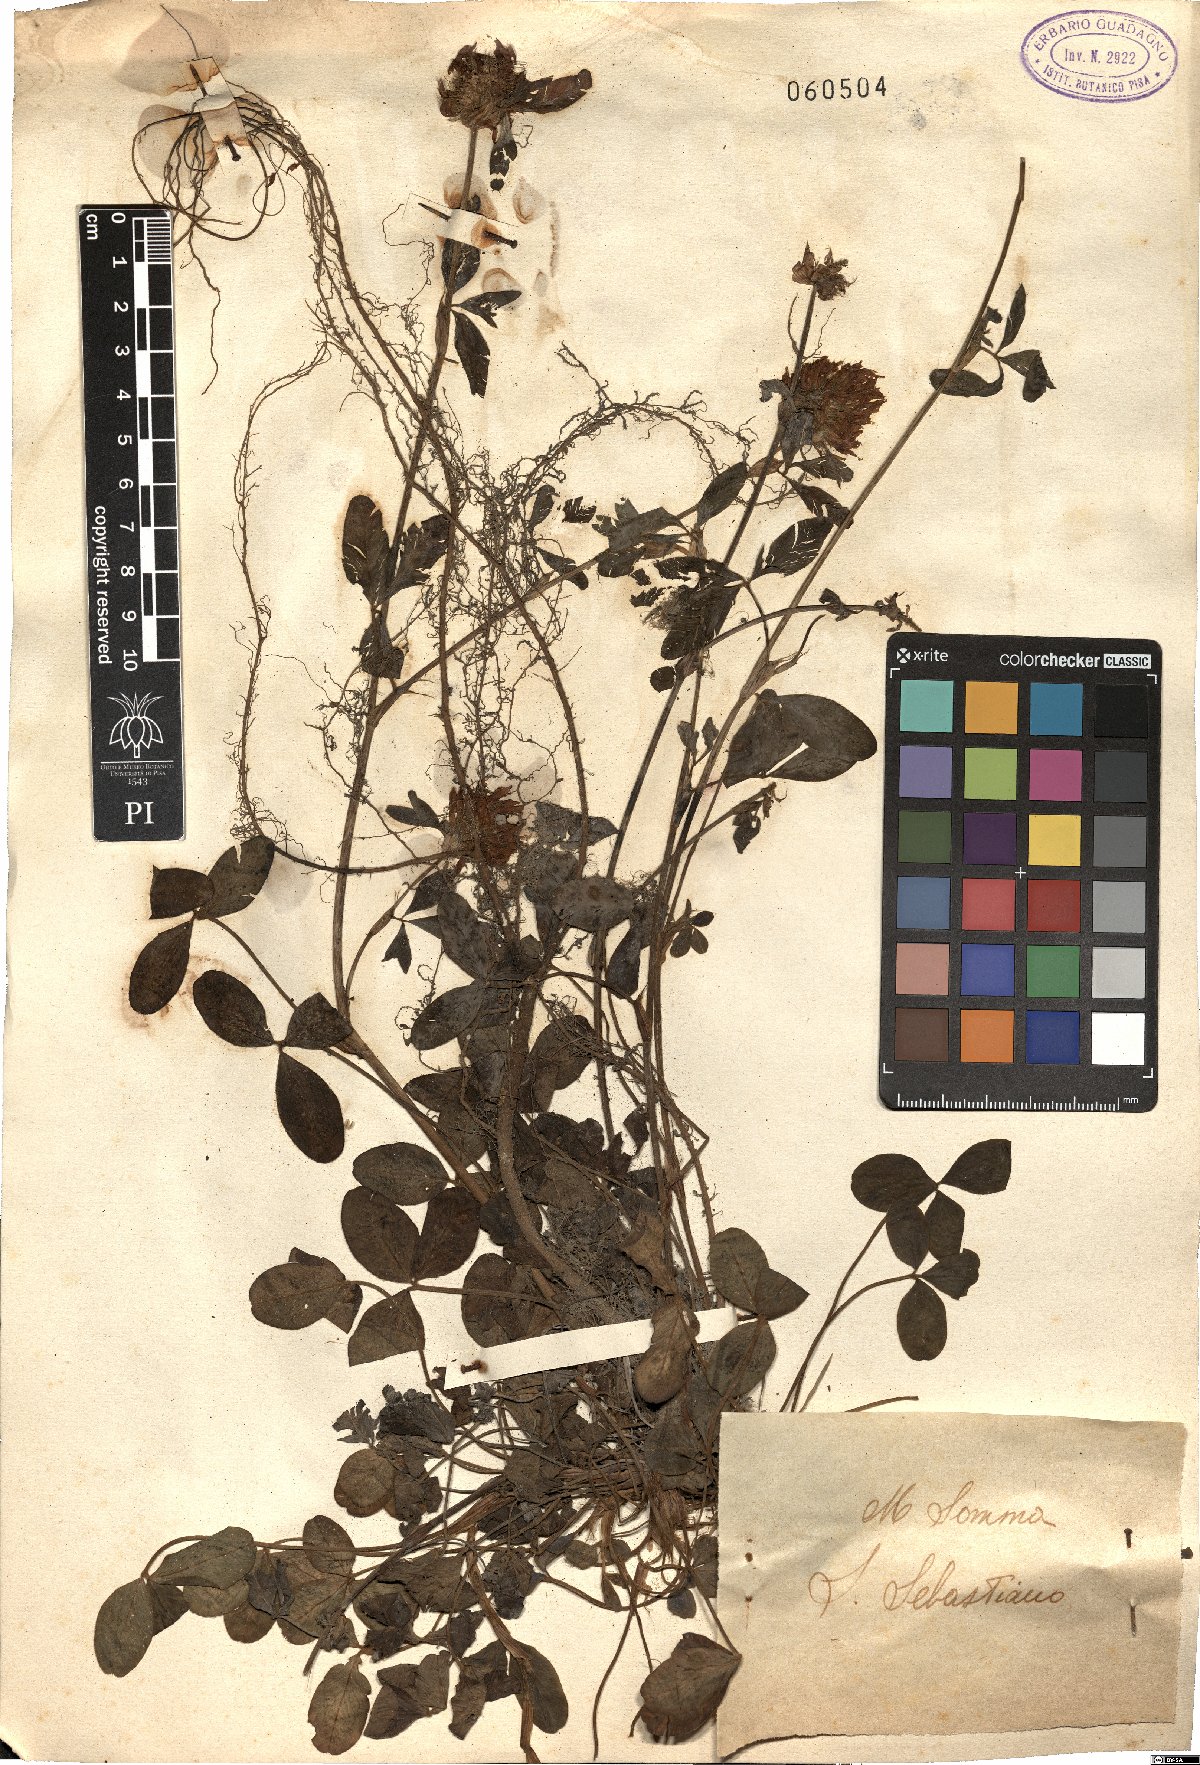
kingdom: Plantae
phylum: Tracheophyta
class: Magnoliopsida
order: Fabales
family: Fabaceae
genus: Trifolium
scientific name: Trifolium pratense
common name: Red clover
